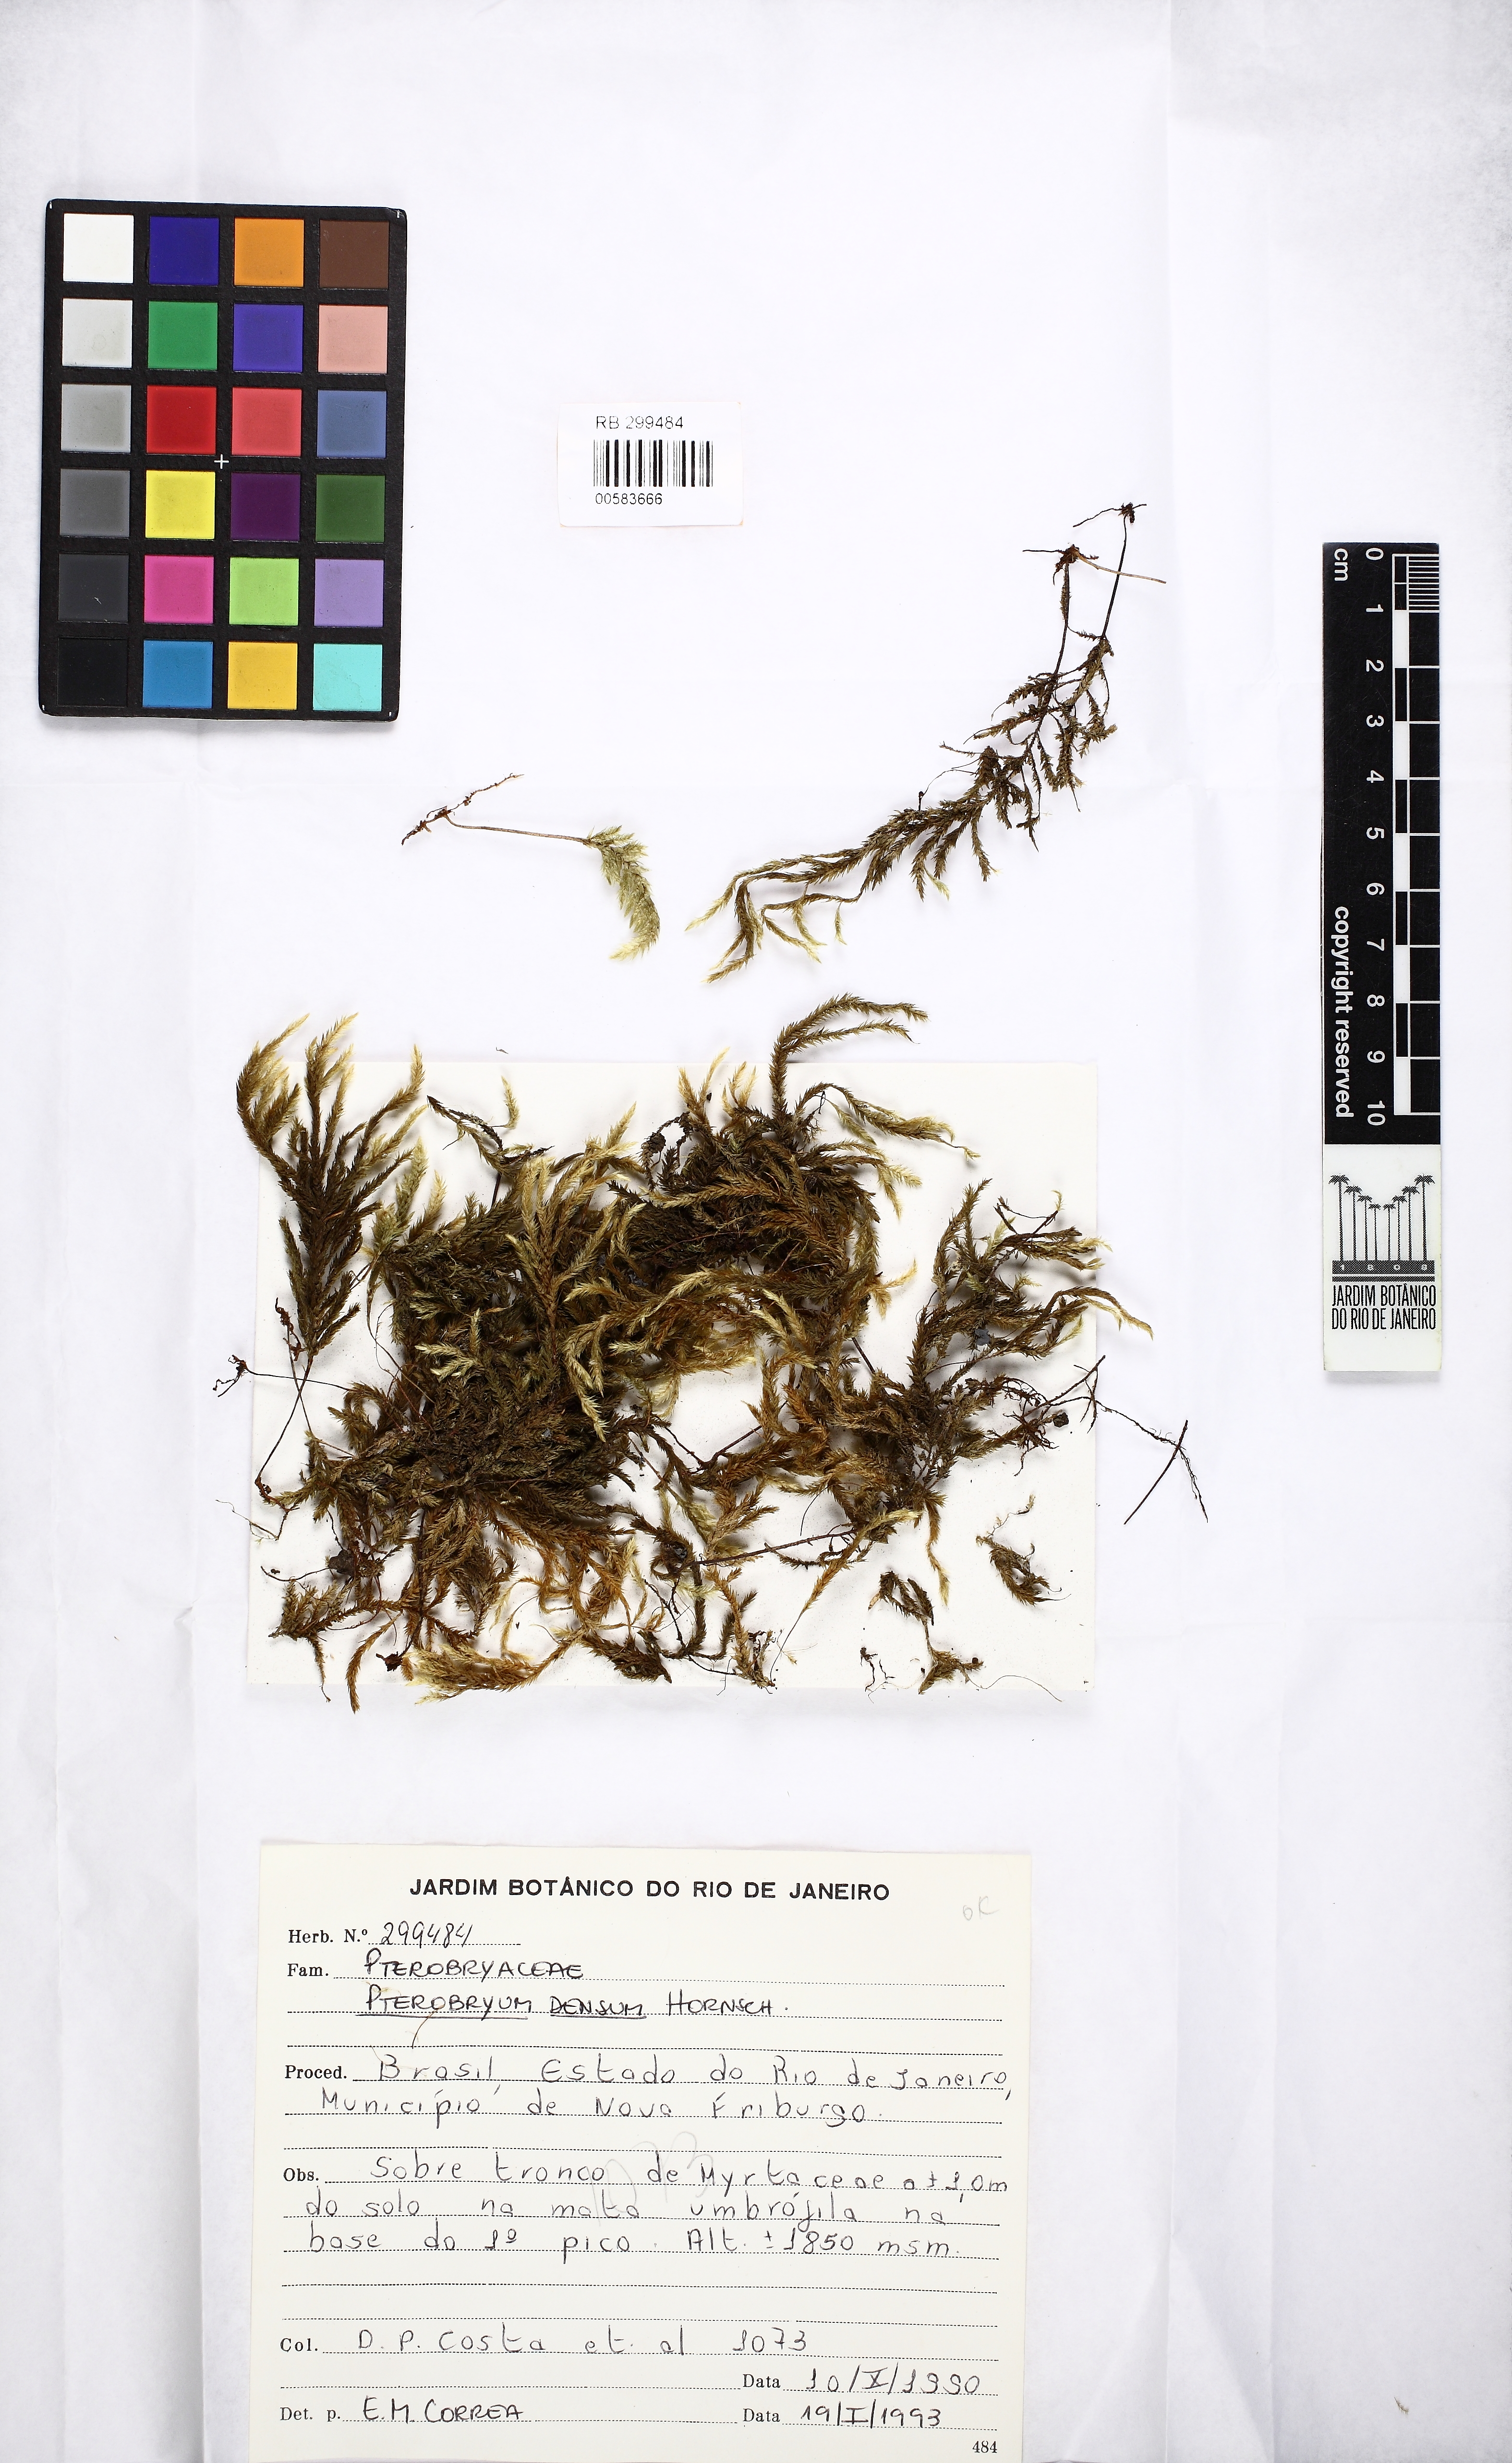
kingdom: Plantae
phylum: Bryophyta
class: Bryopsida
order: Hypnales
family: Pterobryaceae
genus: Pterobryon
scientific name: Pterobryon densum
